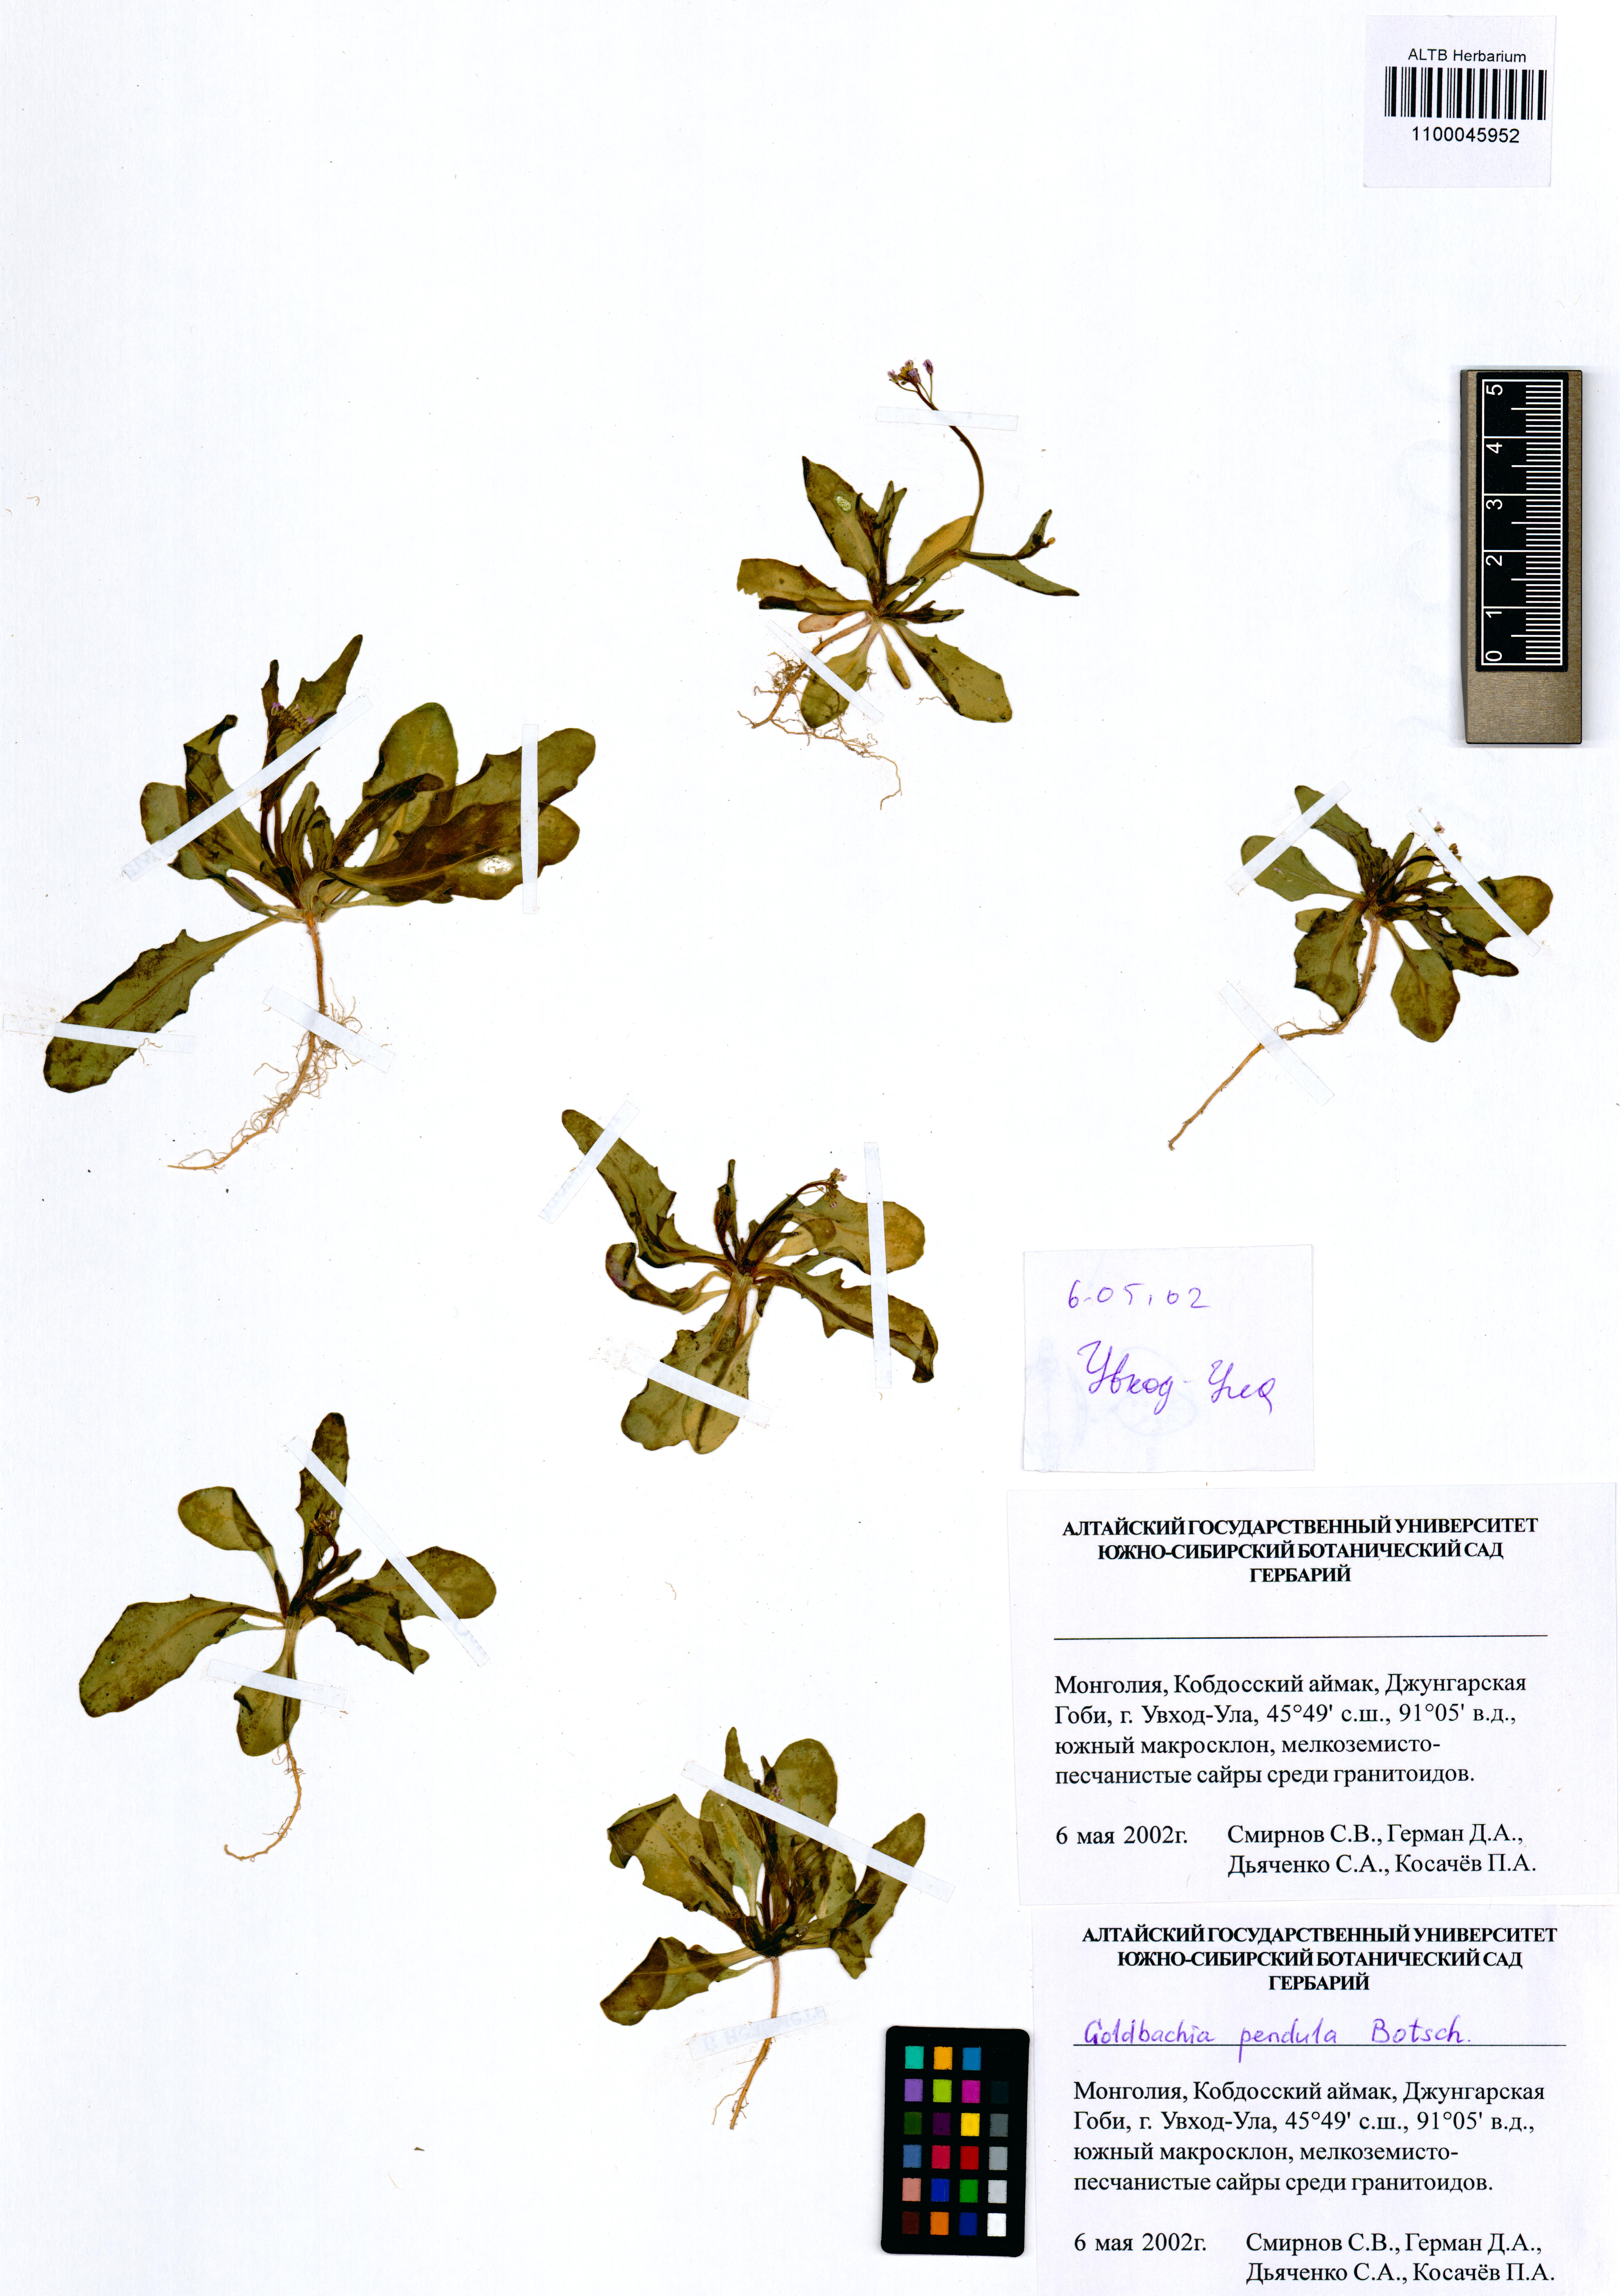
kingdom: Plantae
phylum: Tracheophyta
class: Magnoliopsida
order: Brassicales
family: Brassicaceae
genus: Goldbachia
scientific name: Goldbachia pendula
